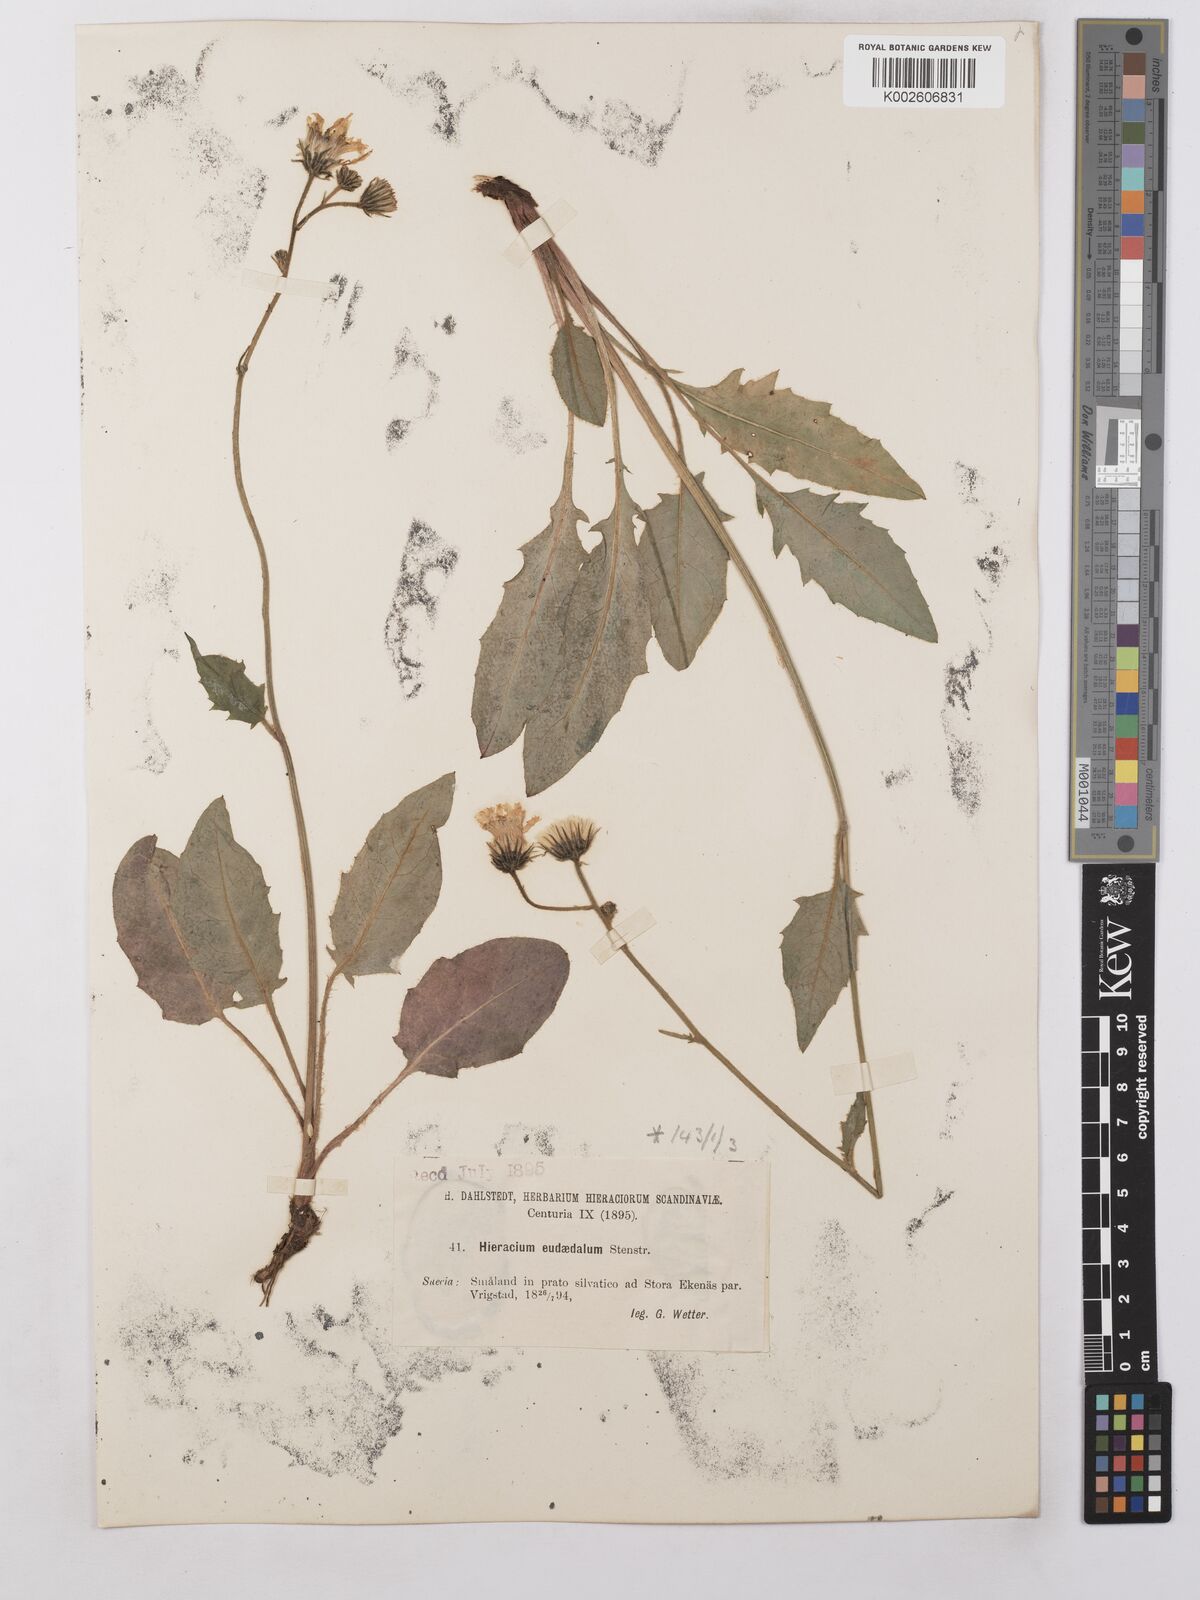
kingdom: Plantae
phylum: Tracheophyta
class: Magnoliopsida
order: Asterales
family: Asteraceae
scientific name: Asteraceae
